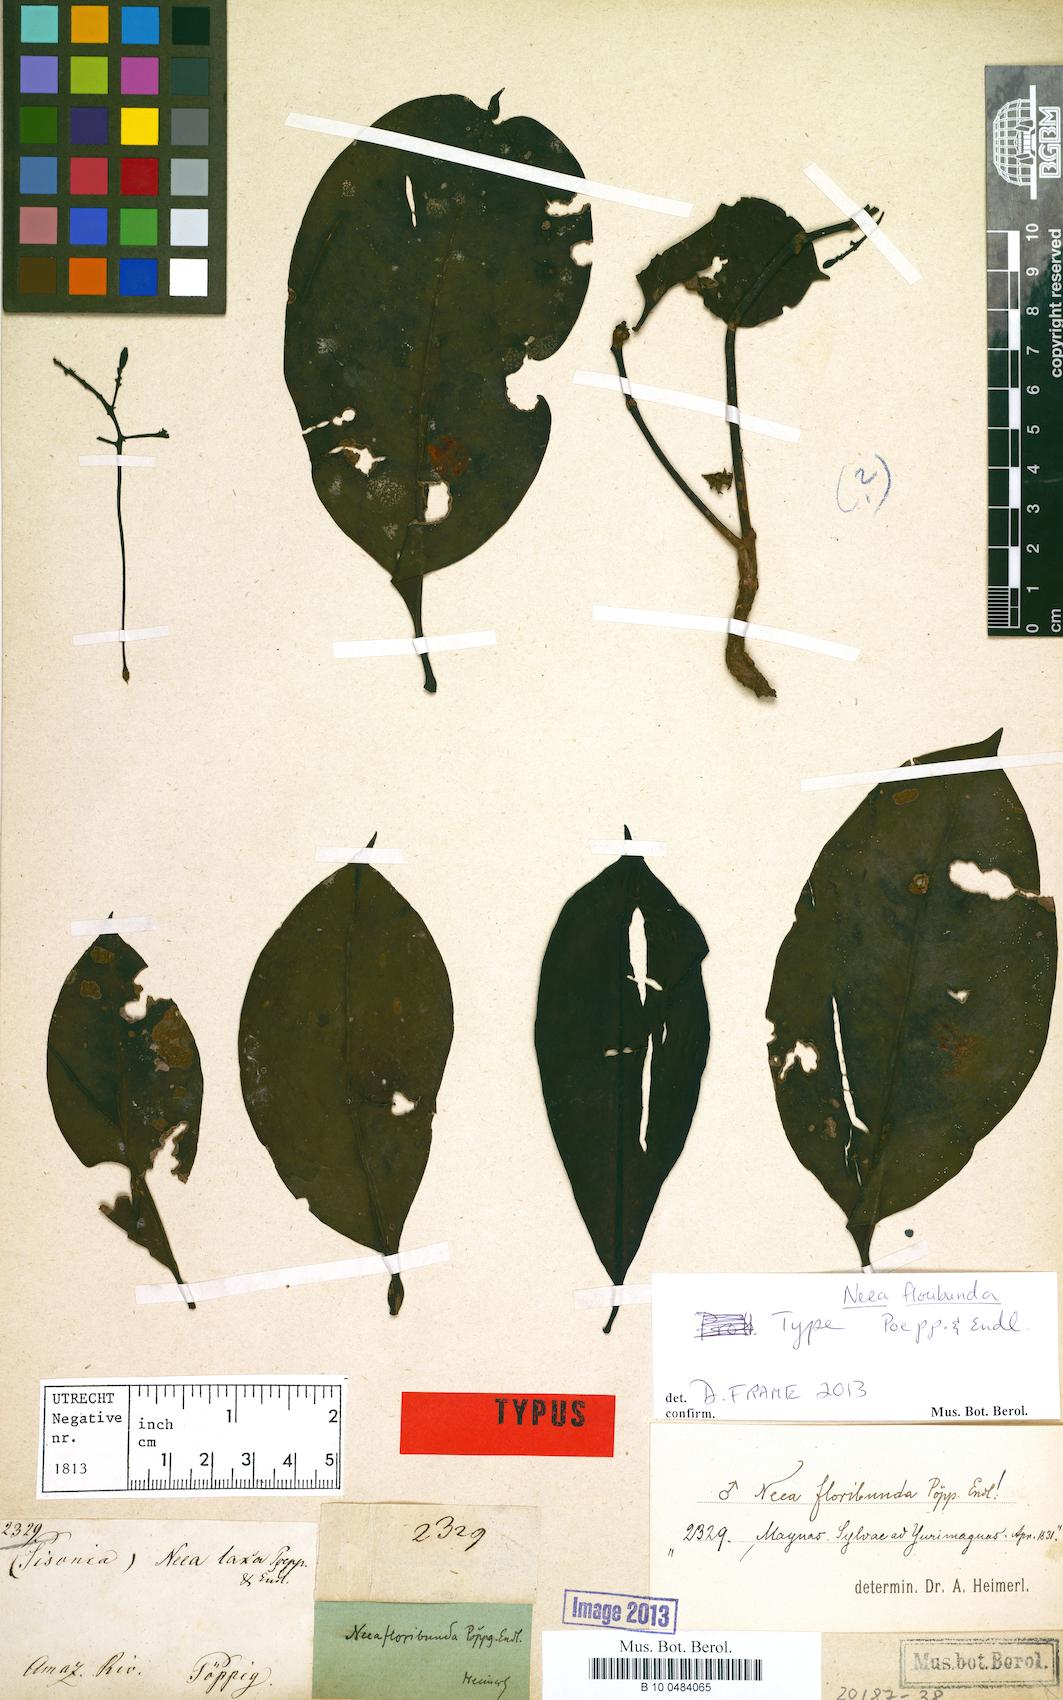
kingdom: Plantae
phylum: Tracheophyta
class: Magnoliopsida
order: Caryophyllales
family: Nyctaginaceae
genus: Neea
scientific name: Neea floribunda
